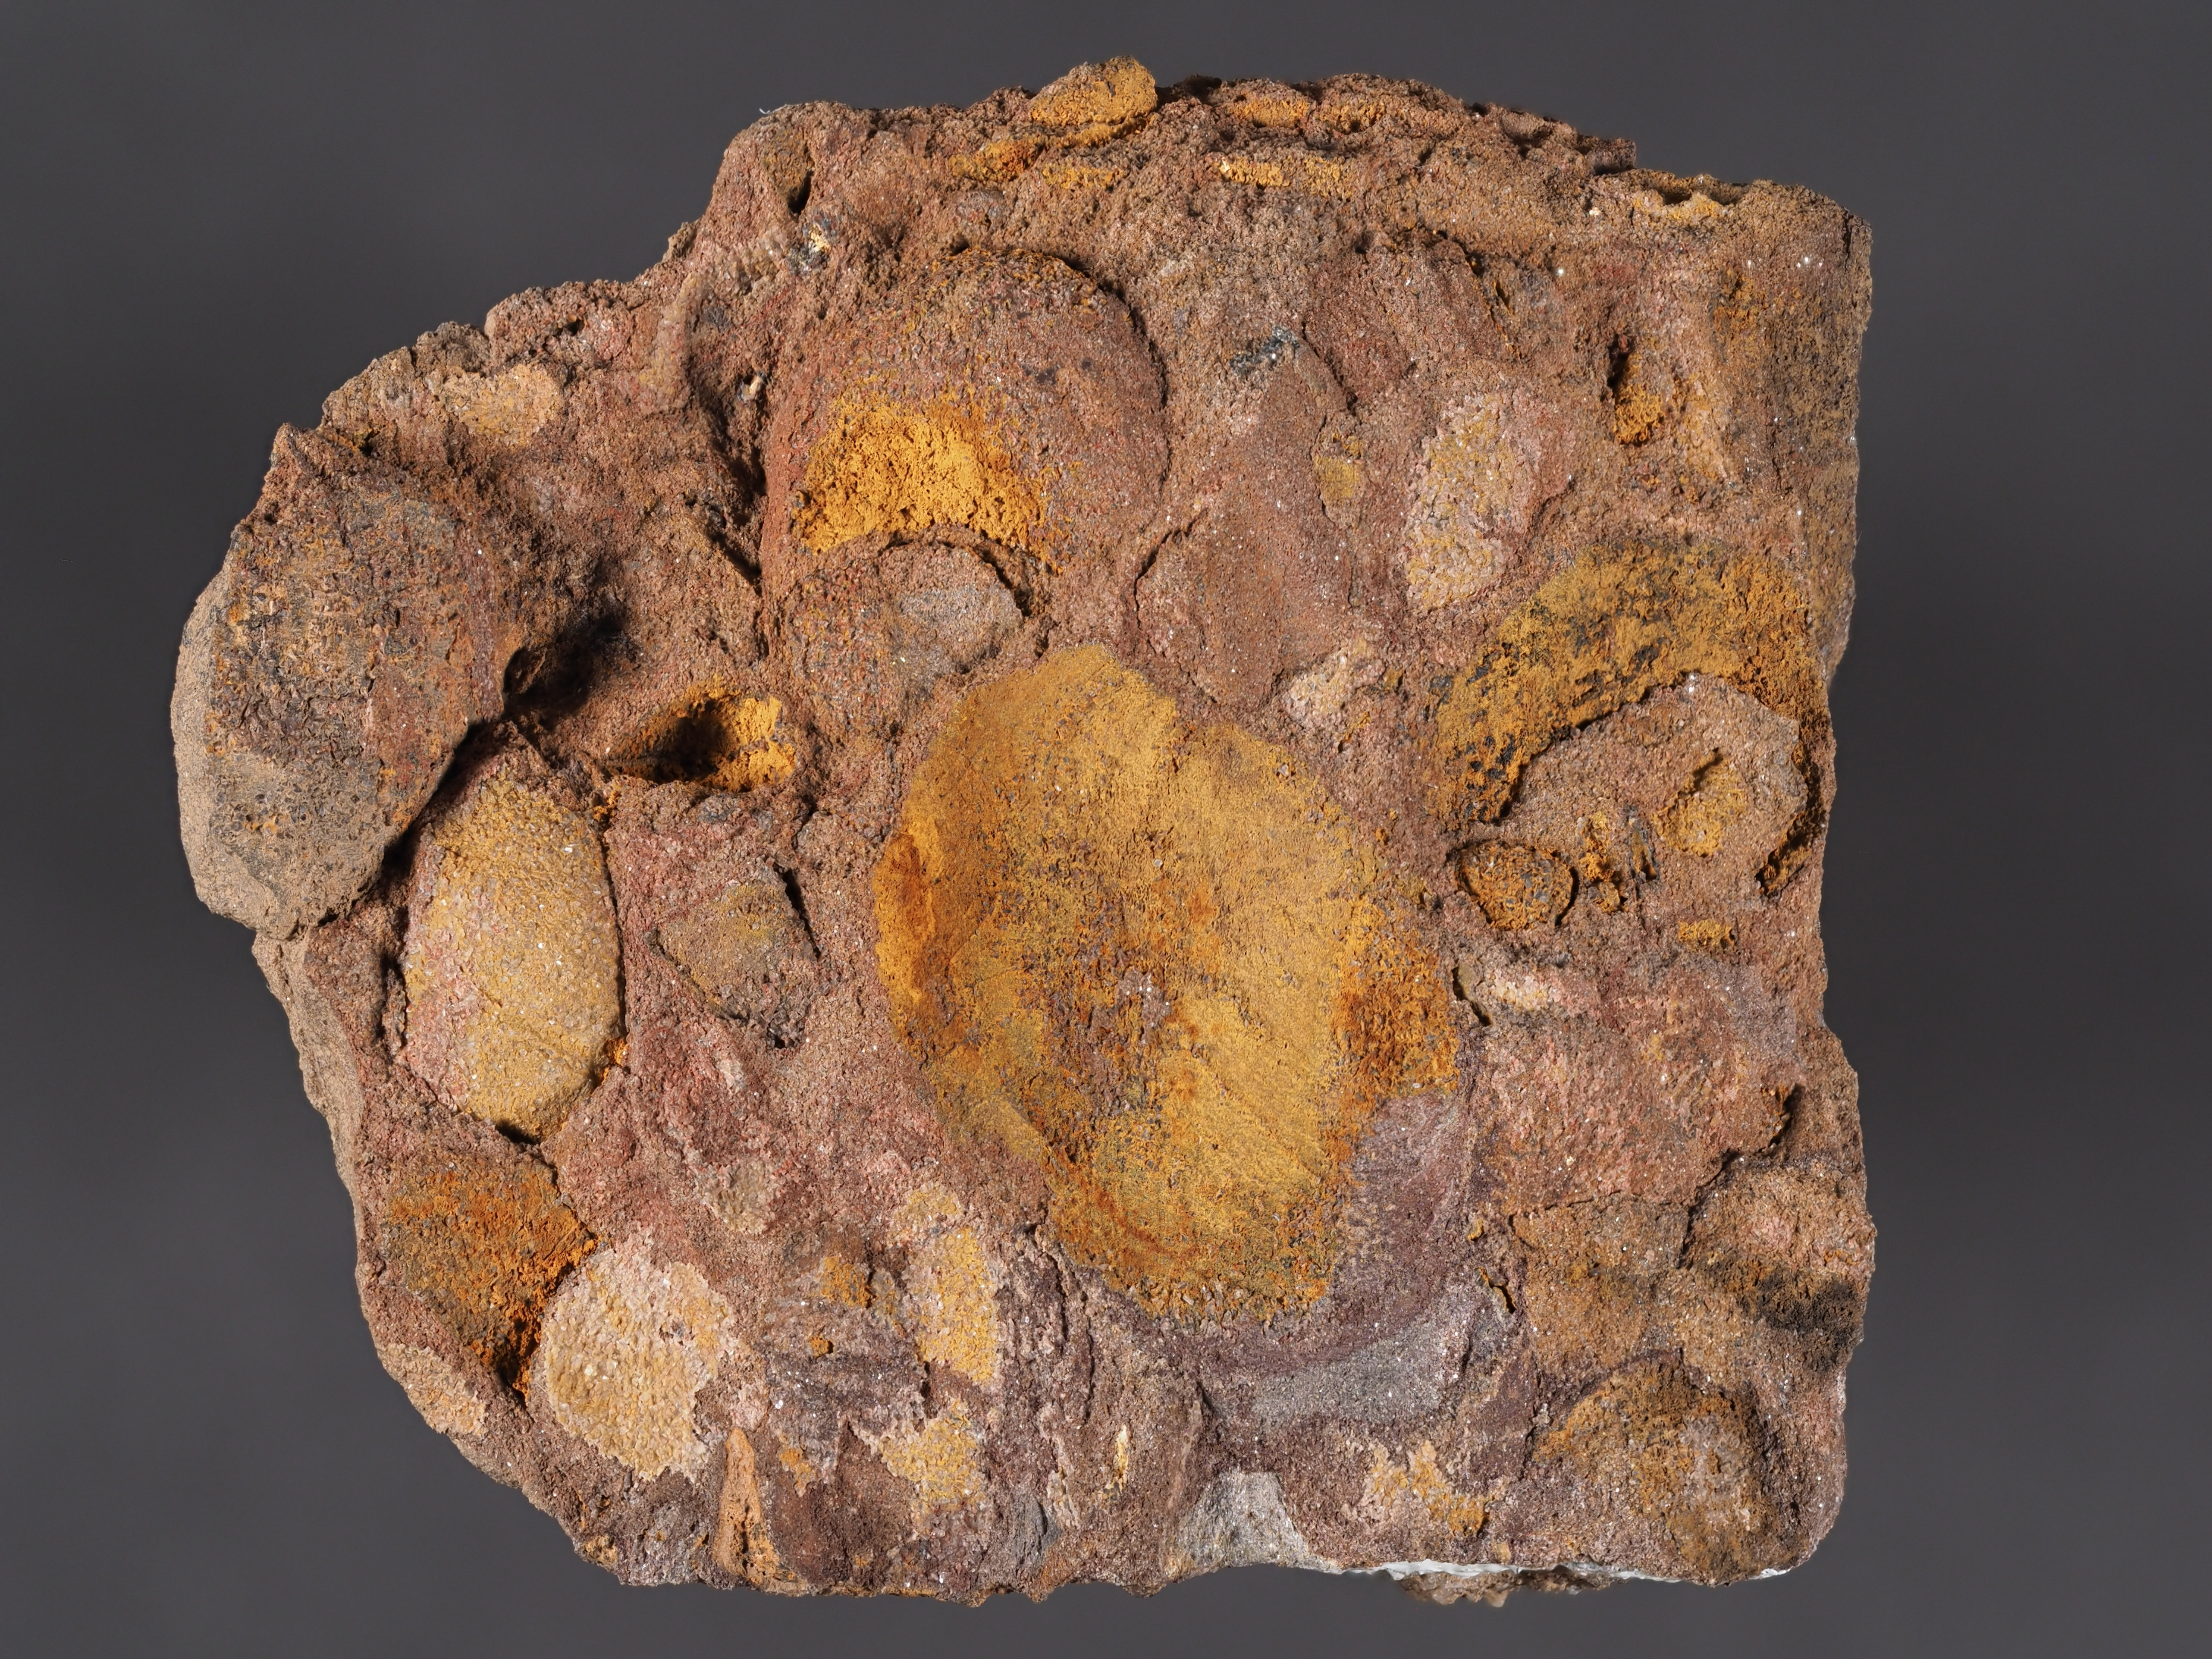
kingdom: Animalia
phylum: Mollusca
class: Gastropoda
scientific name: Gastropoda
